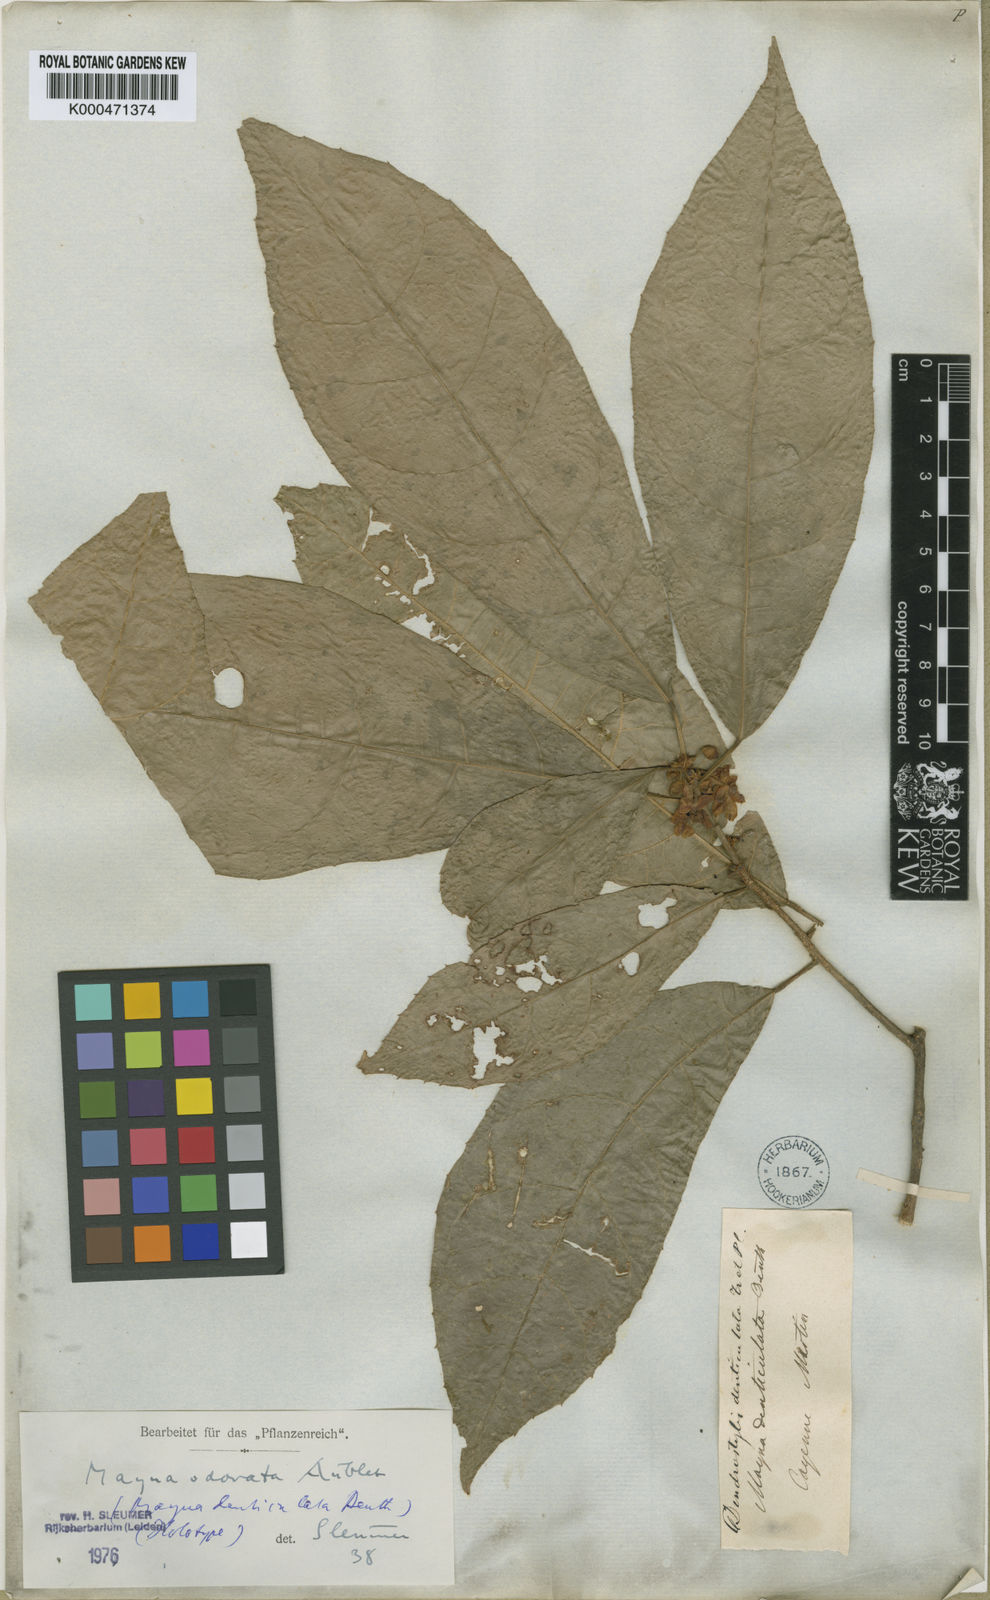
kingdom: Plantae
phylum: Tracheophyta
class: Magnoliopsida
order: Malpighiales
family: Achariaceae
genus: Mayna
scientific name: Mayna odorata
